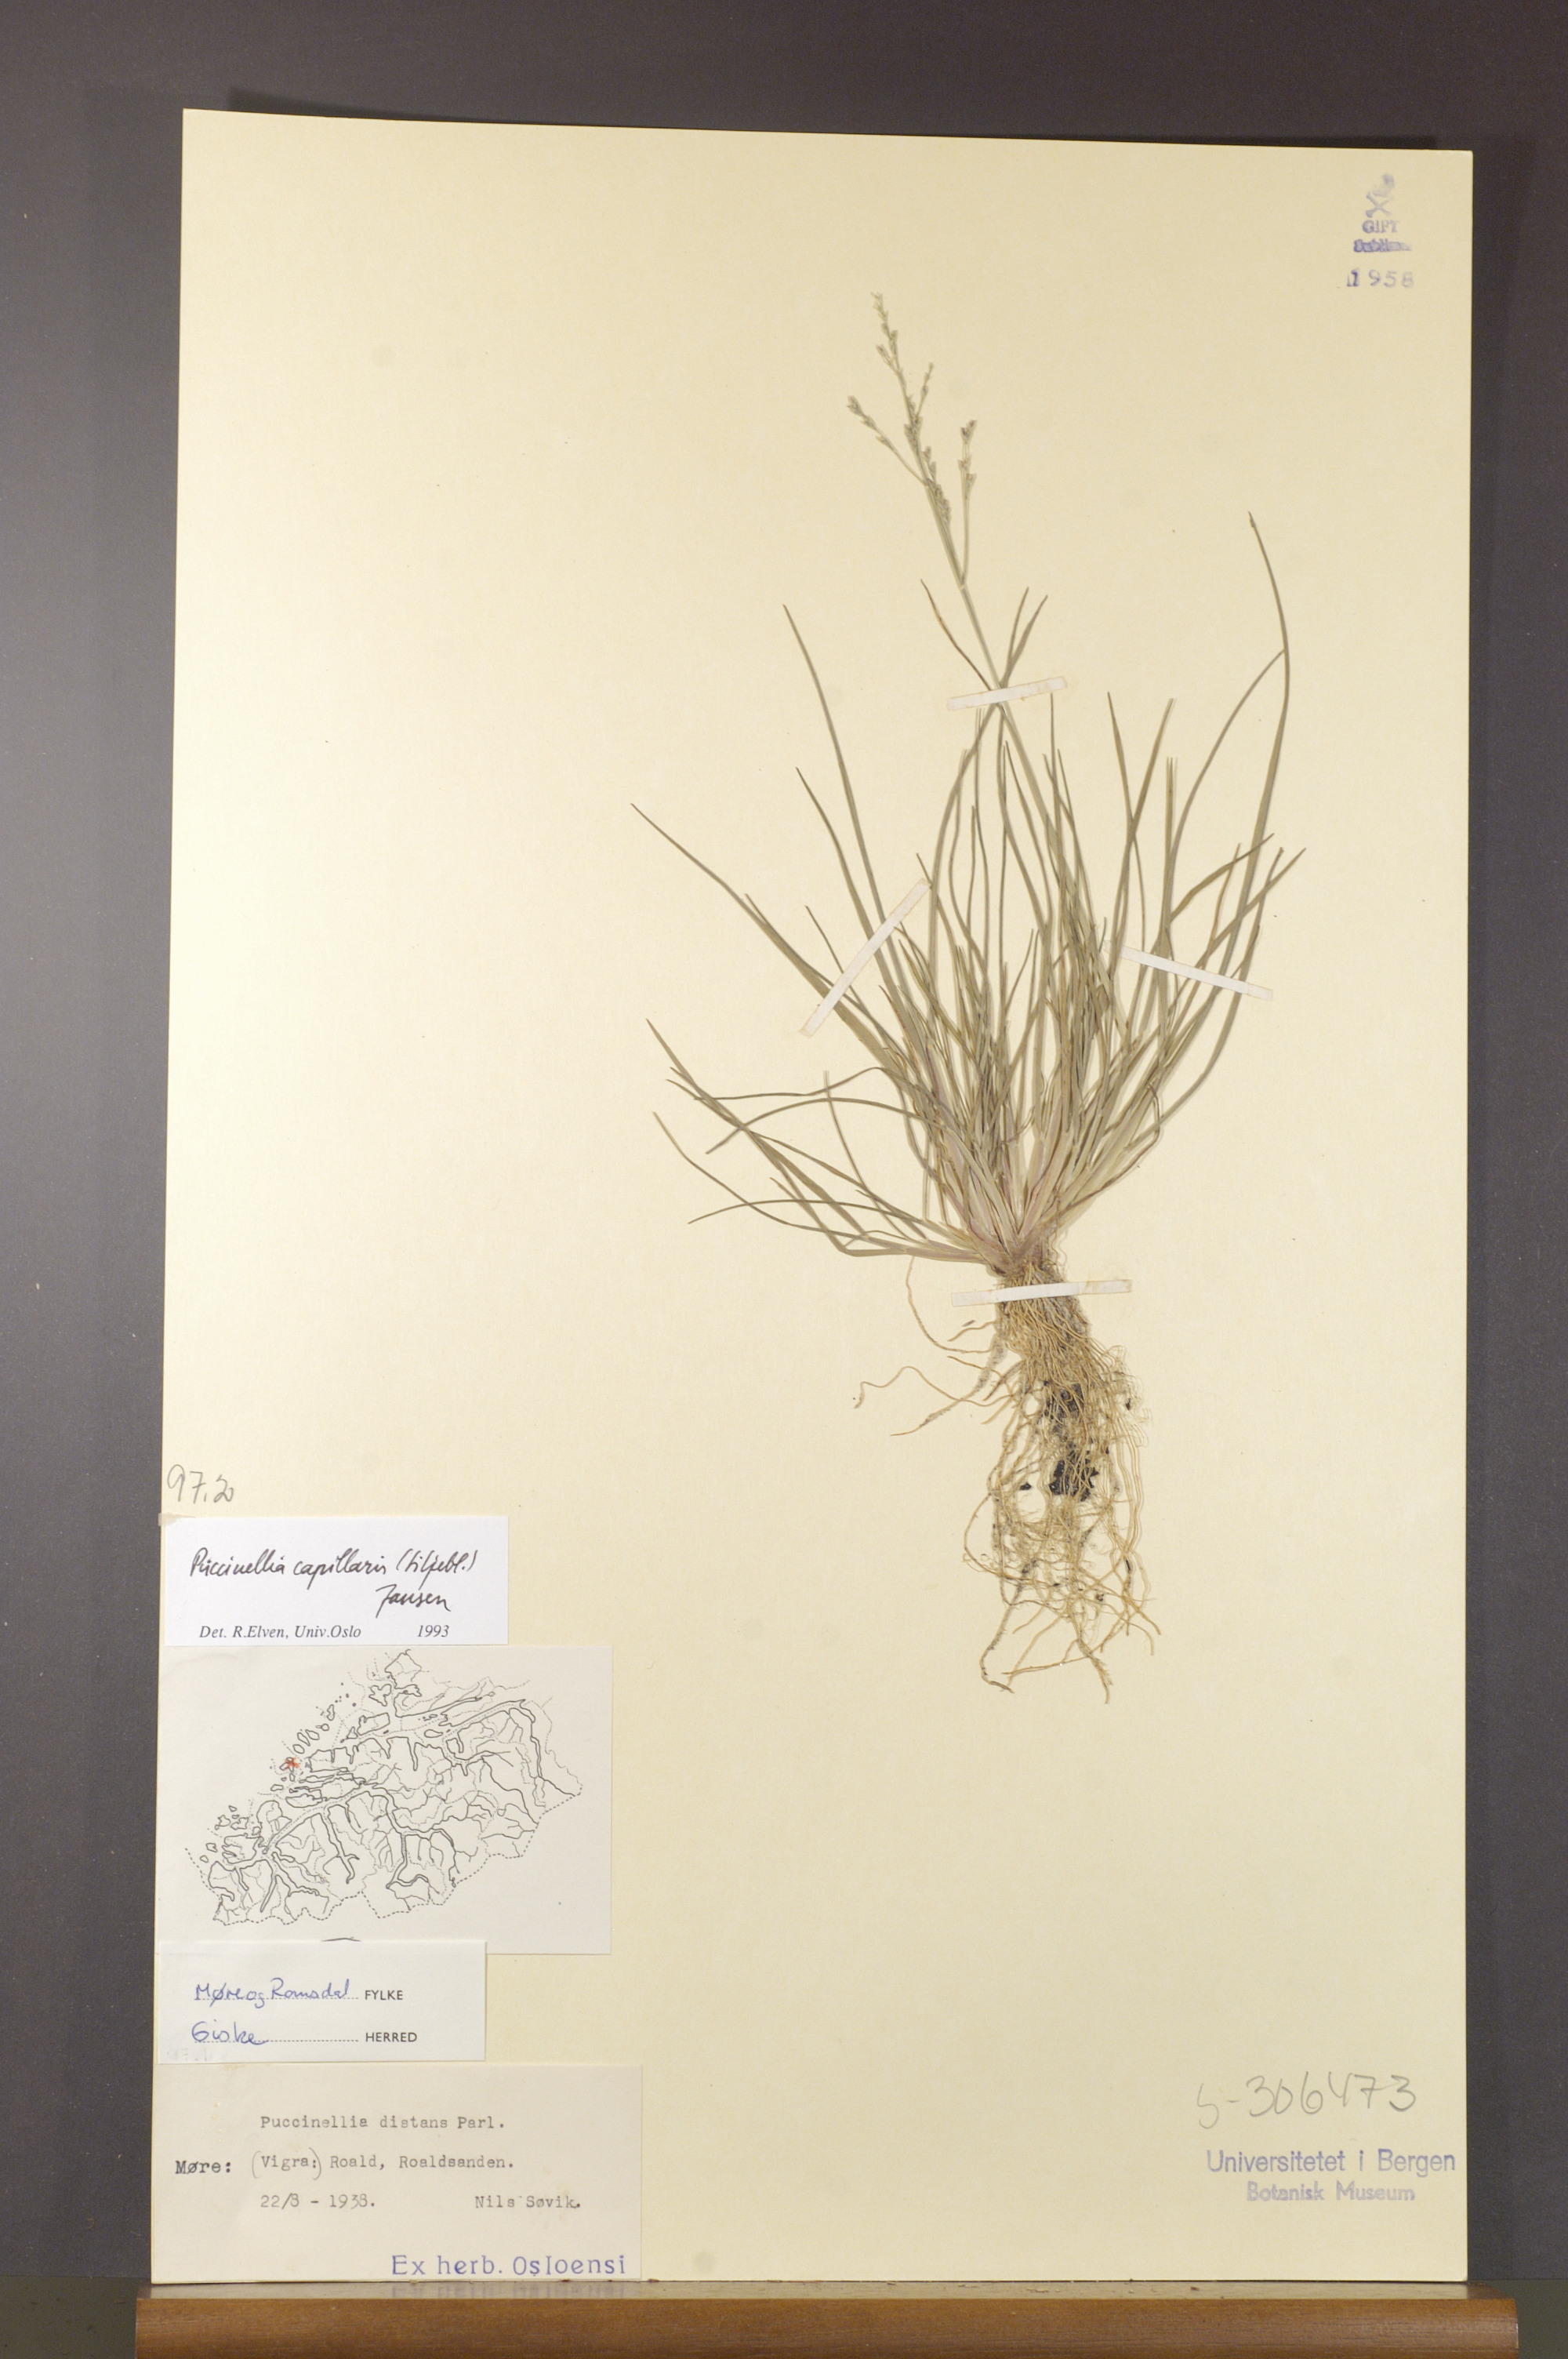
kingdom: Plantae
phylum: Tracheophyta
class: Liliopsida
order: Poales
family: Poaceae
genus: Puccinellia
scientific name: Puccinellia distans
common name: Weeping alkaligrass
